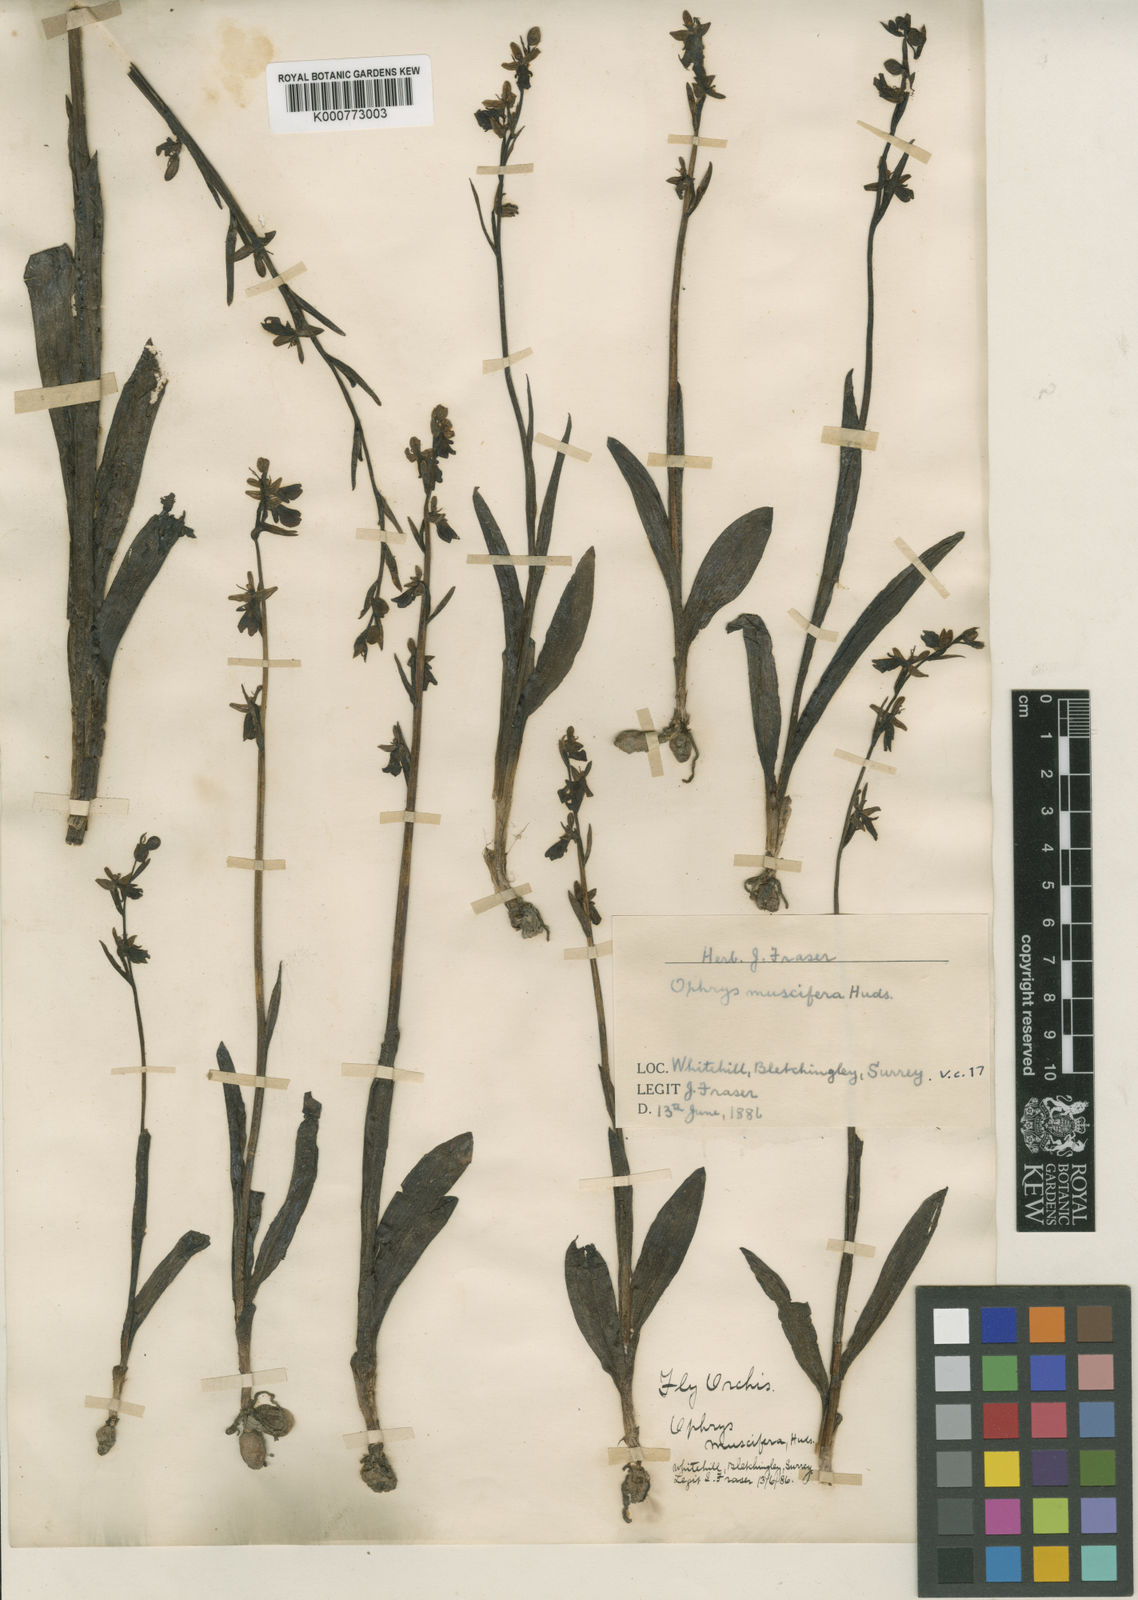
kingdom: Plantae
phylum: Tracheophyta
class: Liliopsida
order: Asparagales
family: Orchidaceae
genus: Ophrys
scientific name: Ophrys insectifera
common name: Fly orchid
